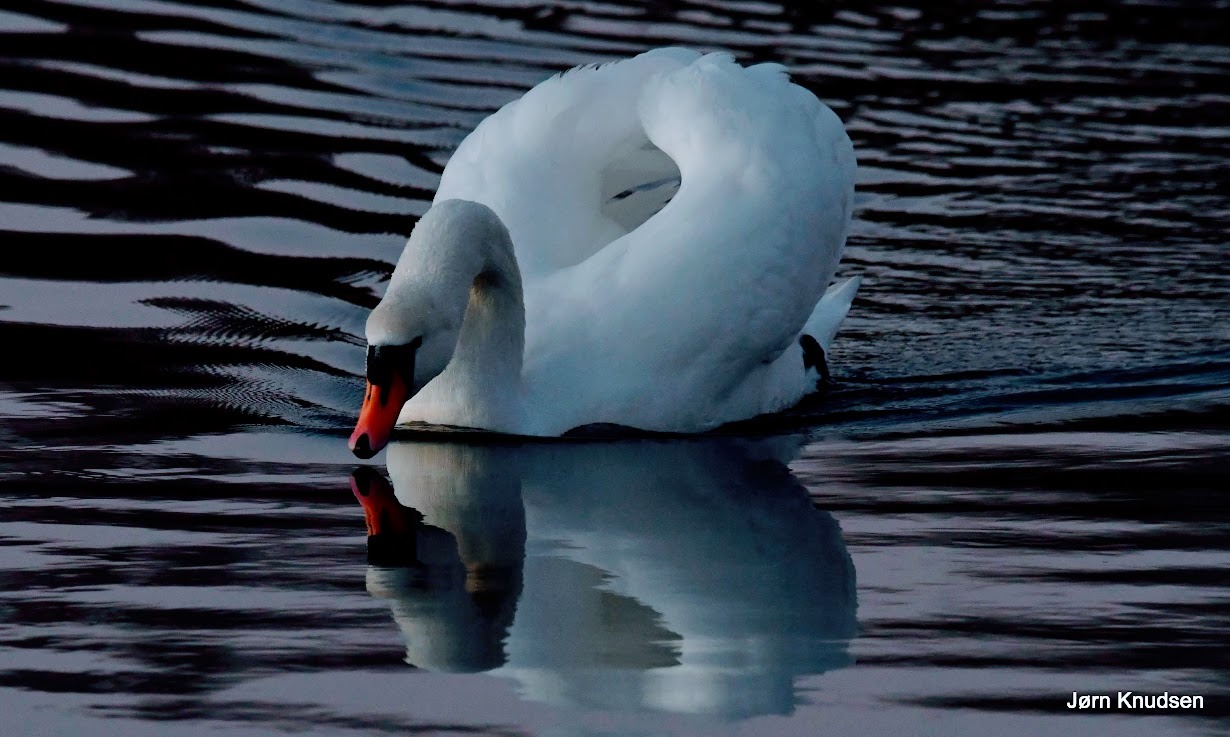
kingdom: Animalia
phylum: Chordata
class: Aves
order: Anseriformes
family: Anatidae
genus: Cygnus
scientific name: Cygnus olor
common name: Knopsvane
